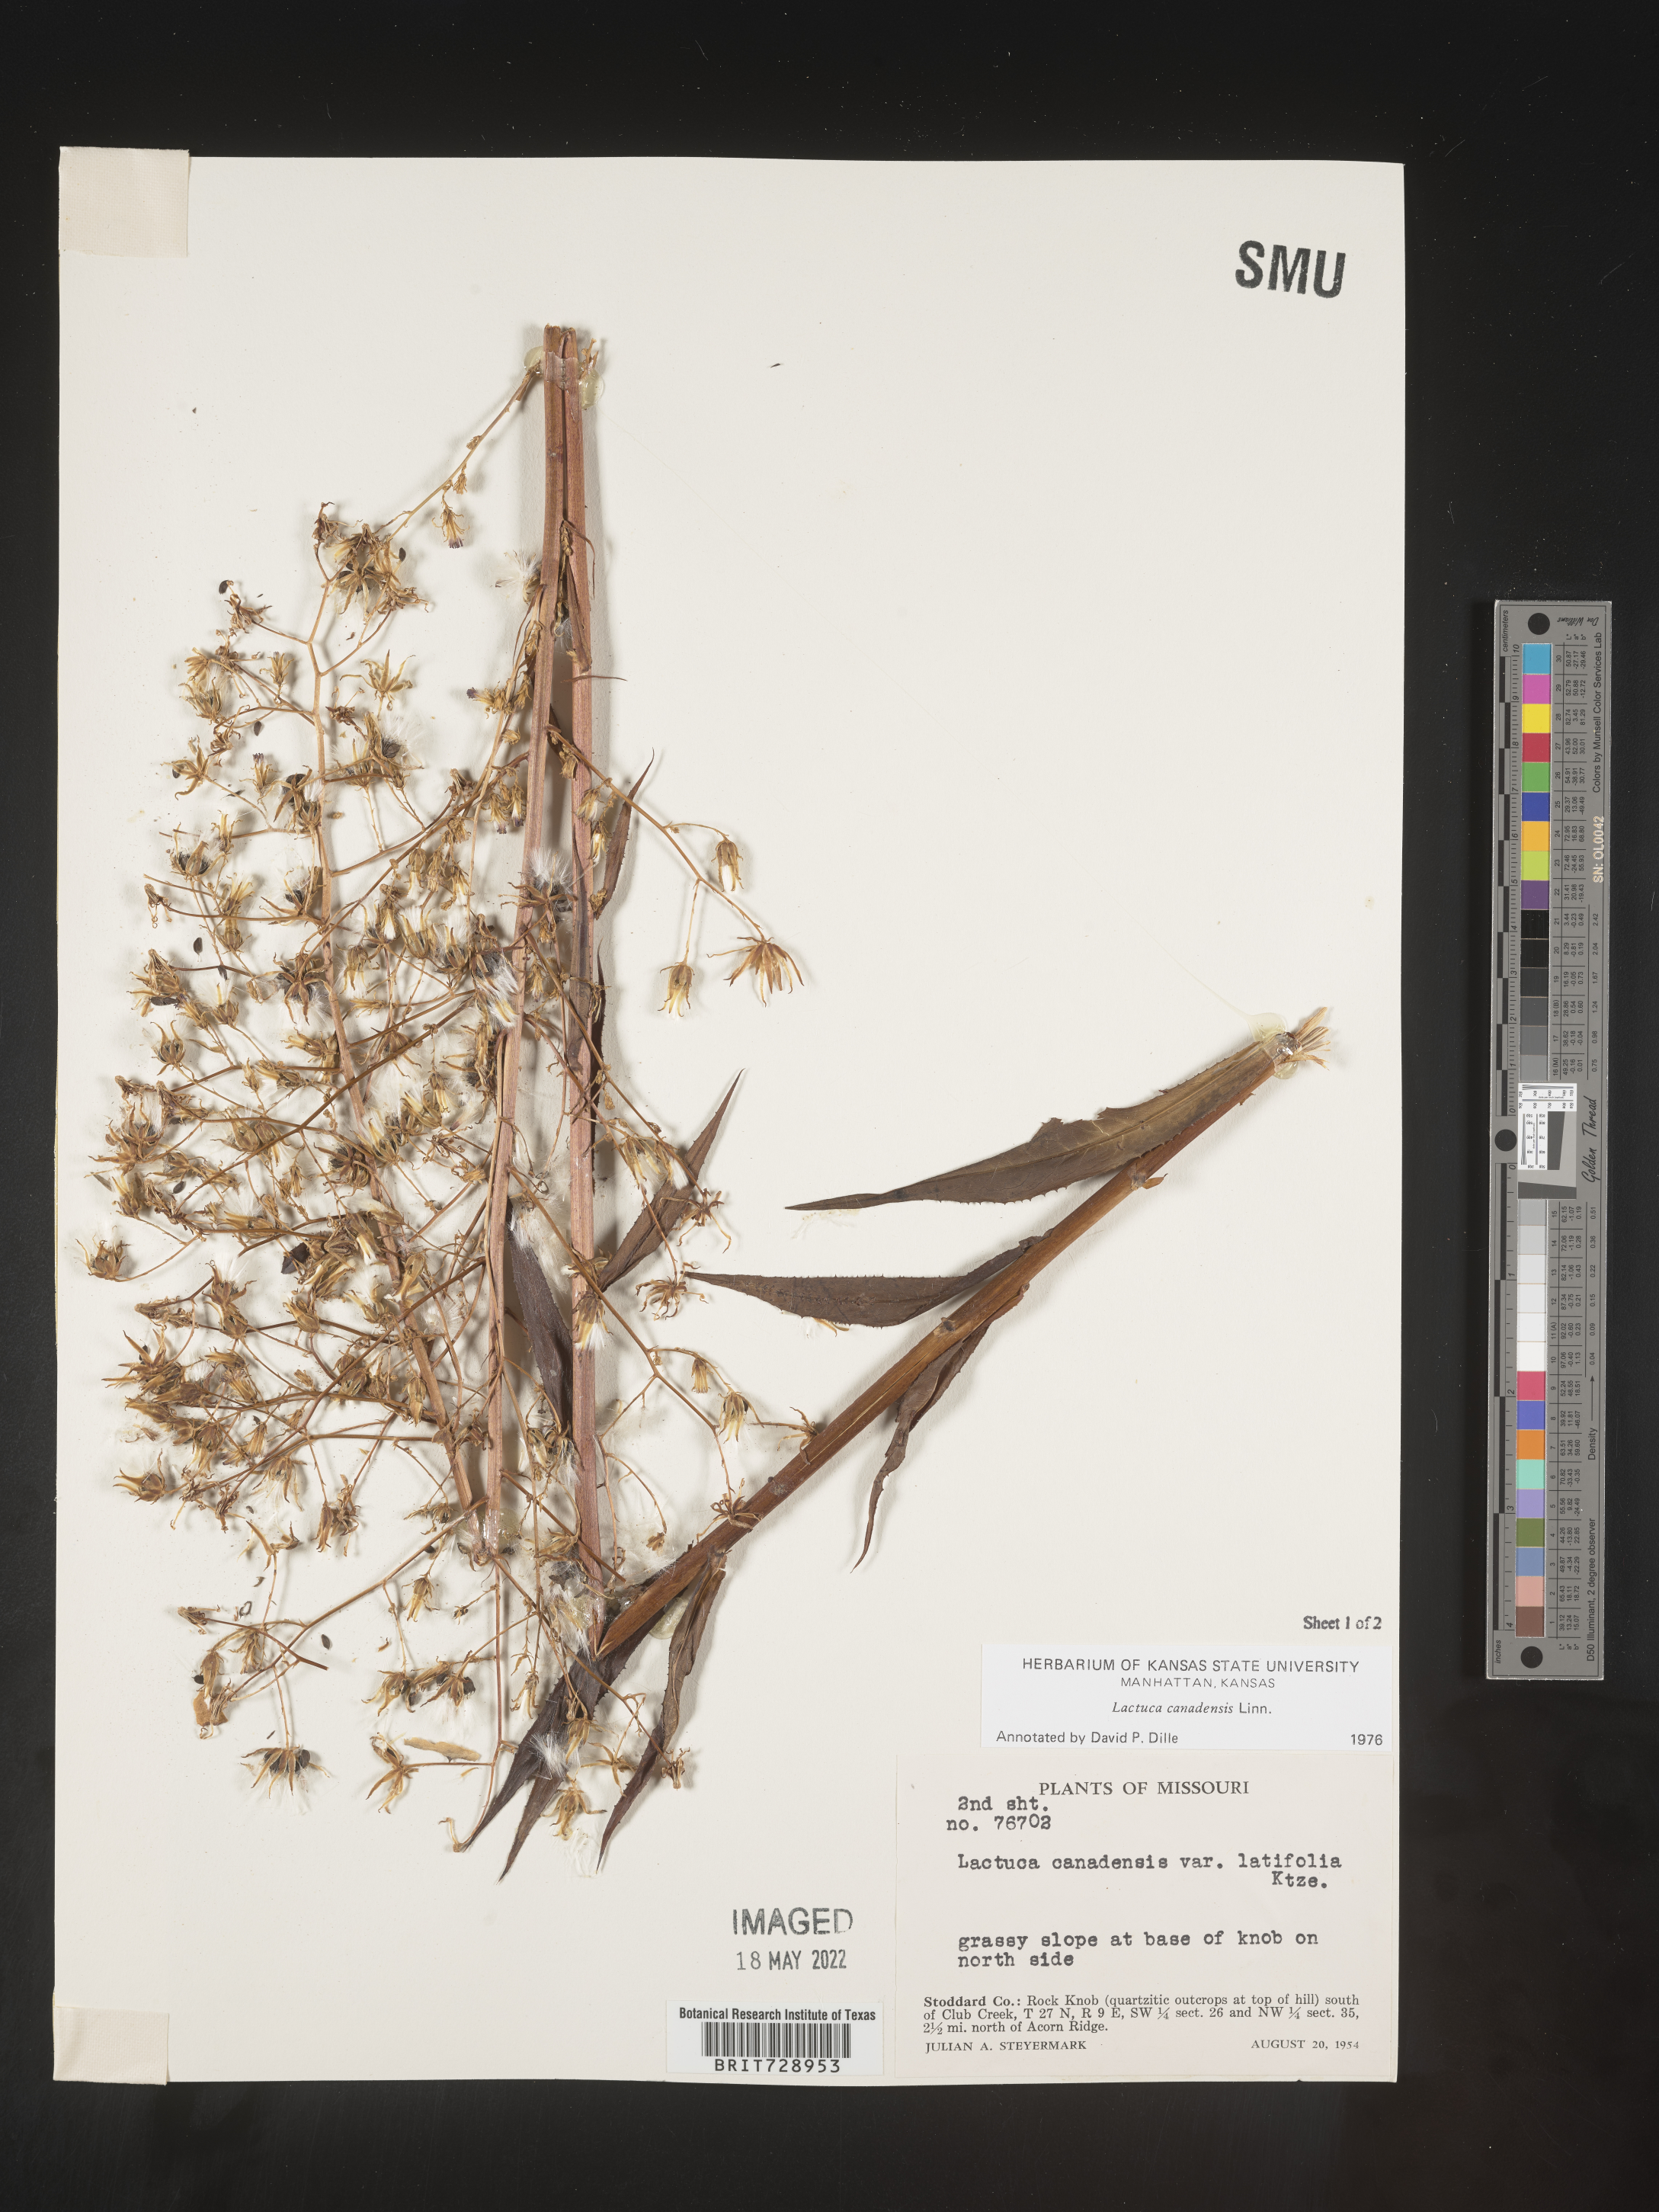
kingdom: Plantae
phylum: Tracheophyta
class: Magnoliopsida
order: Asterales
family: Asteraceae
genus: Lactuca
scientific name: Lactuca canadensis
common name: Canada lettuce
